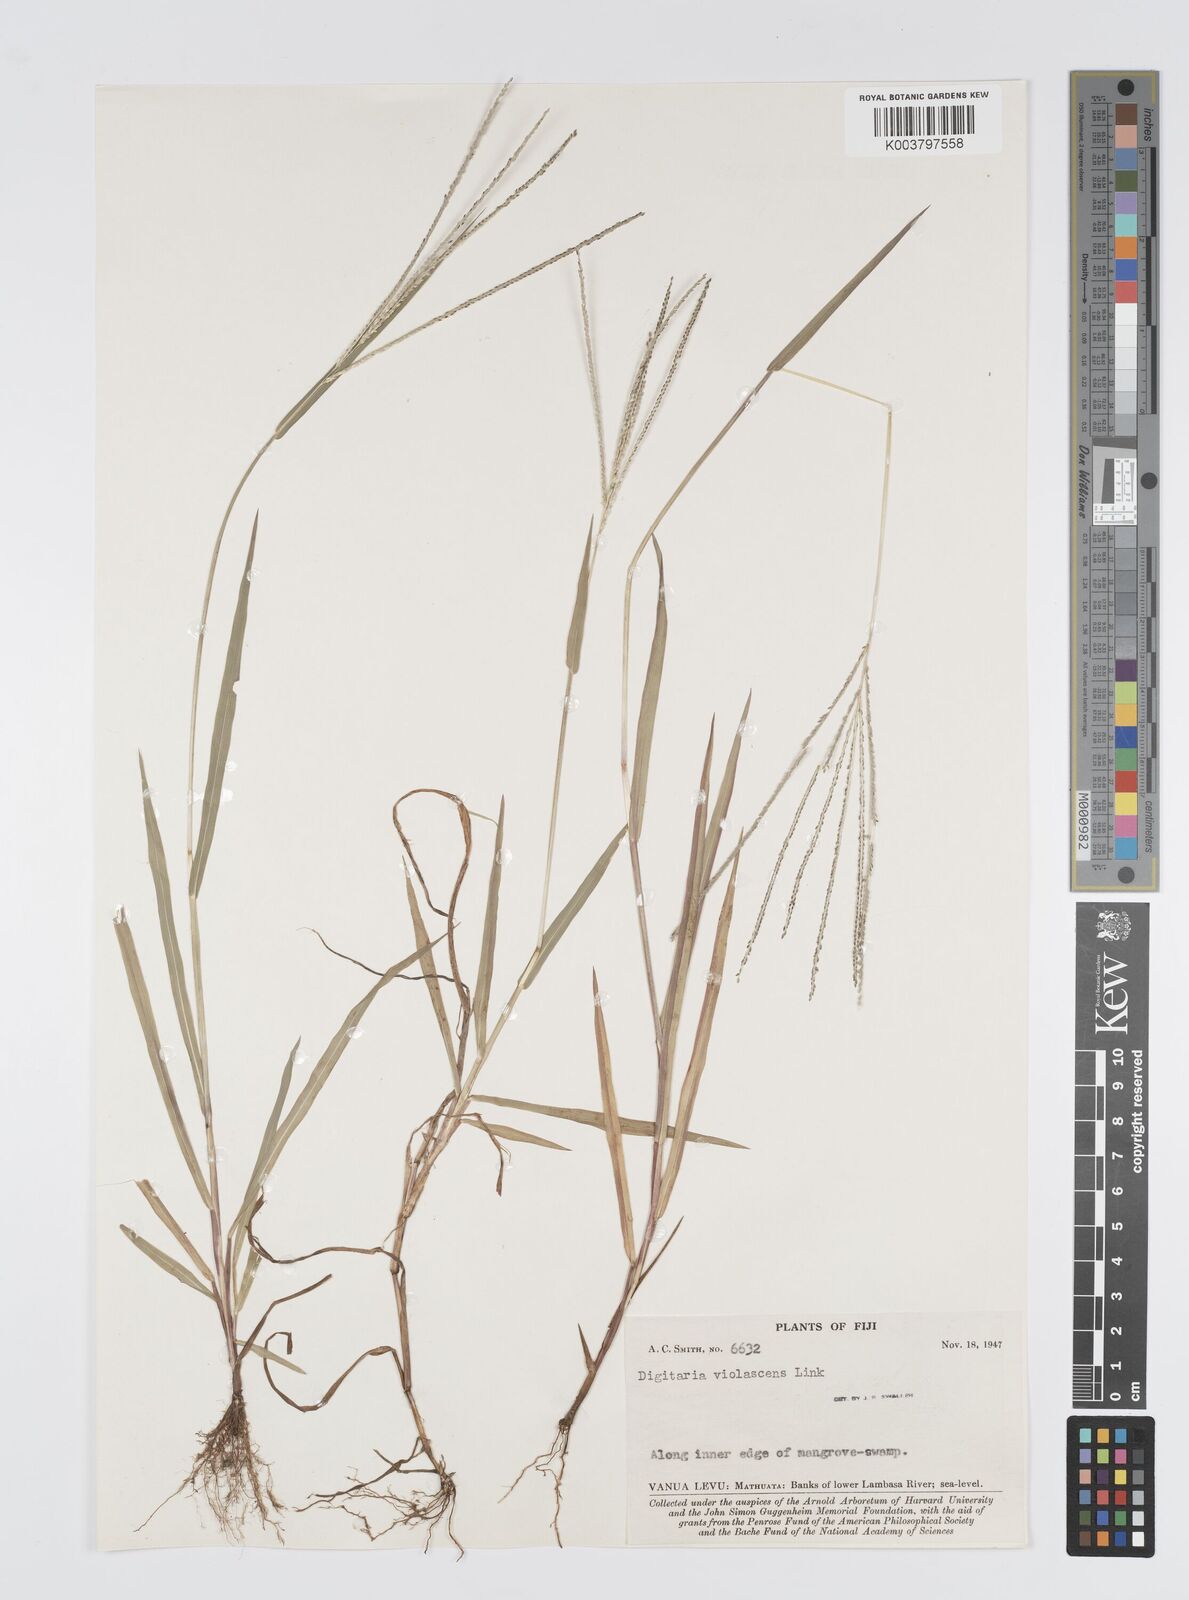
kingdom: Plantae
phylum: Tracheophyta
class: Liliopsida
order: Poales
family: Poaceae
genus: Digitaria
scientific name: Digitaria violascens
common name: Violet crabgrass
